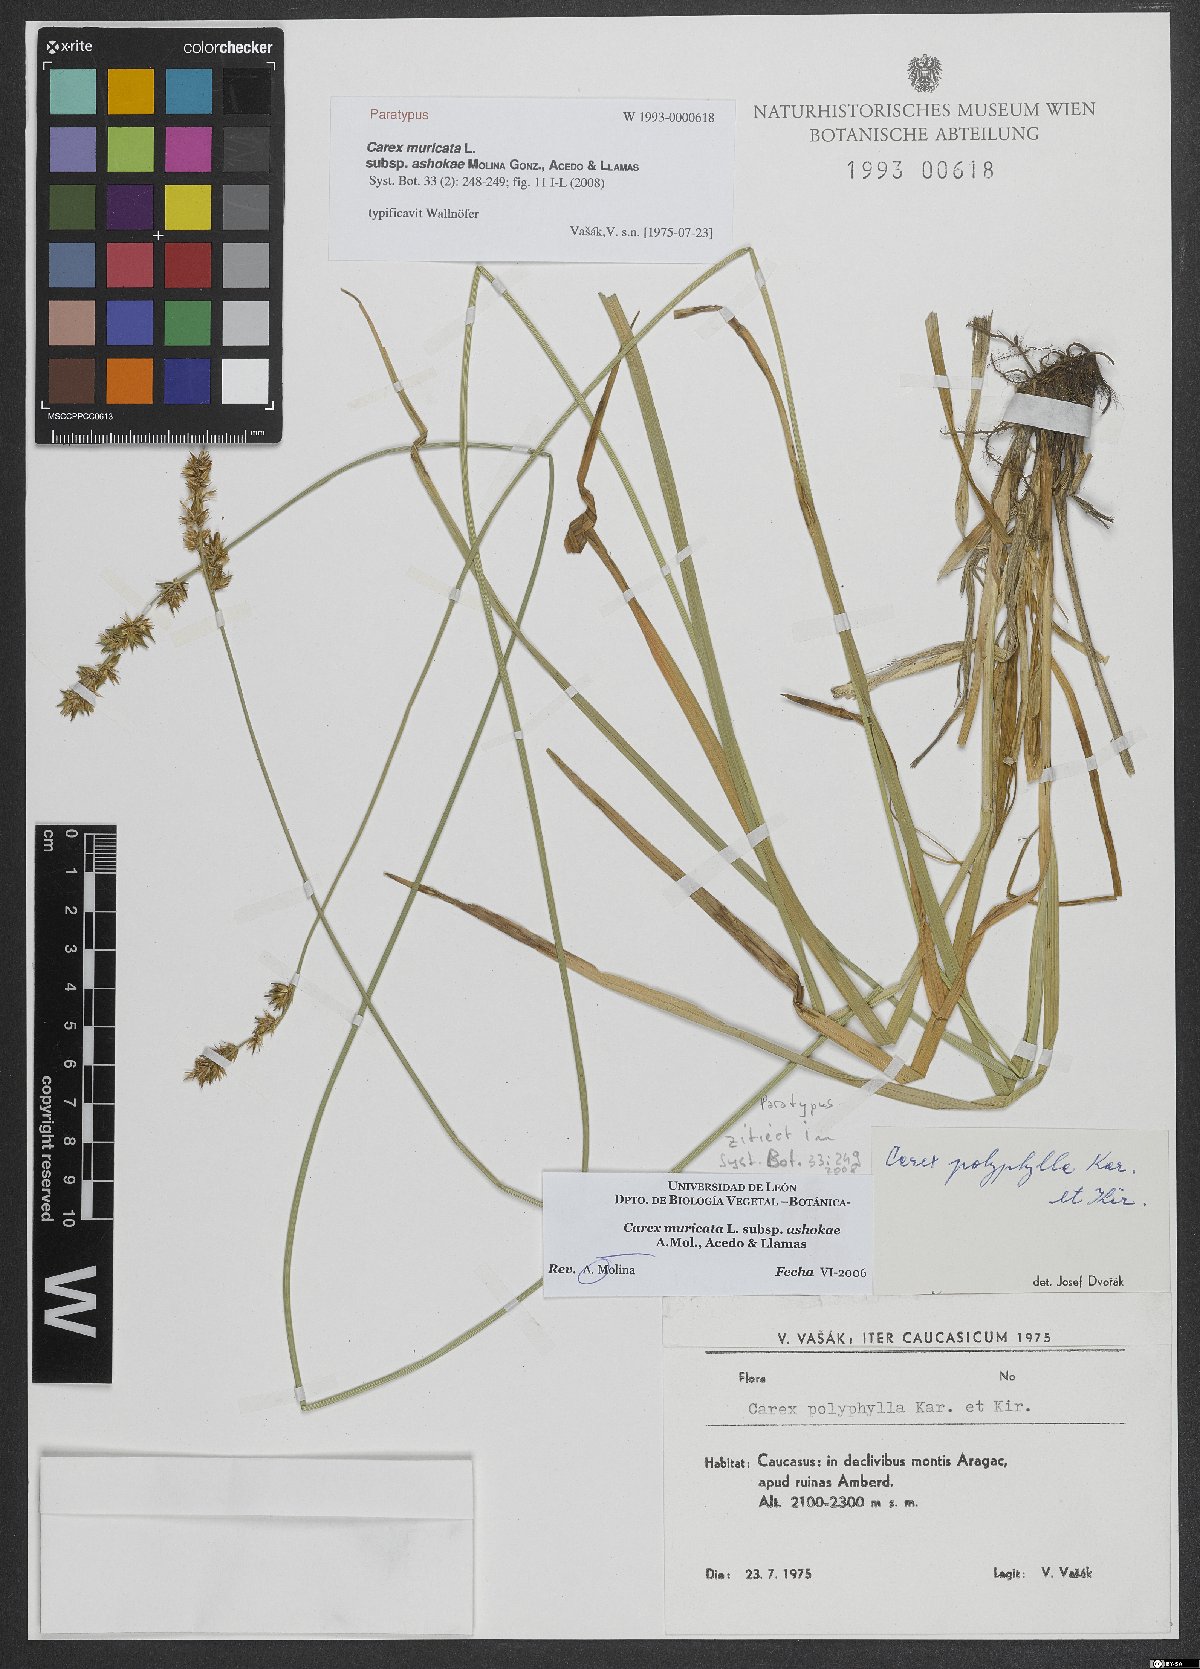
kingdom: Plantae
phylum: Tracheophyta
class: Liliopsida
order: Poales
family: Cyperaceae
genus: Carex
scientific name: Carex muricata
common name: Rough sedge
